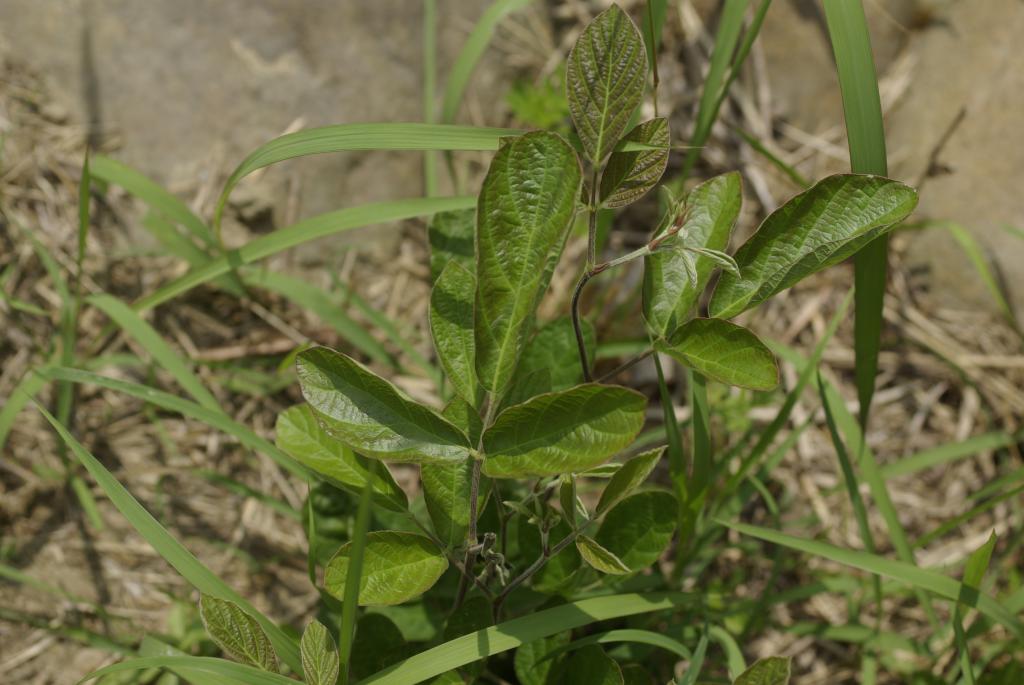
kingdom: Plantae
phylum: Tracheophyta
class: Magnoliopsida
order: Fabales
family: Fabaceae
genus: Phyllodium
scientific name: Phyllodium pulchellum
